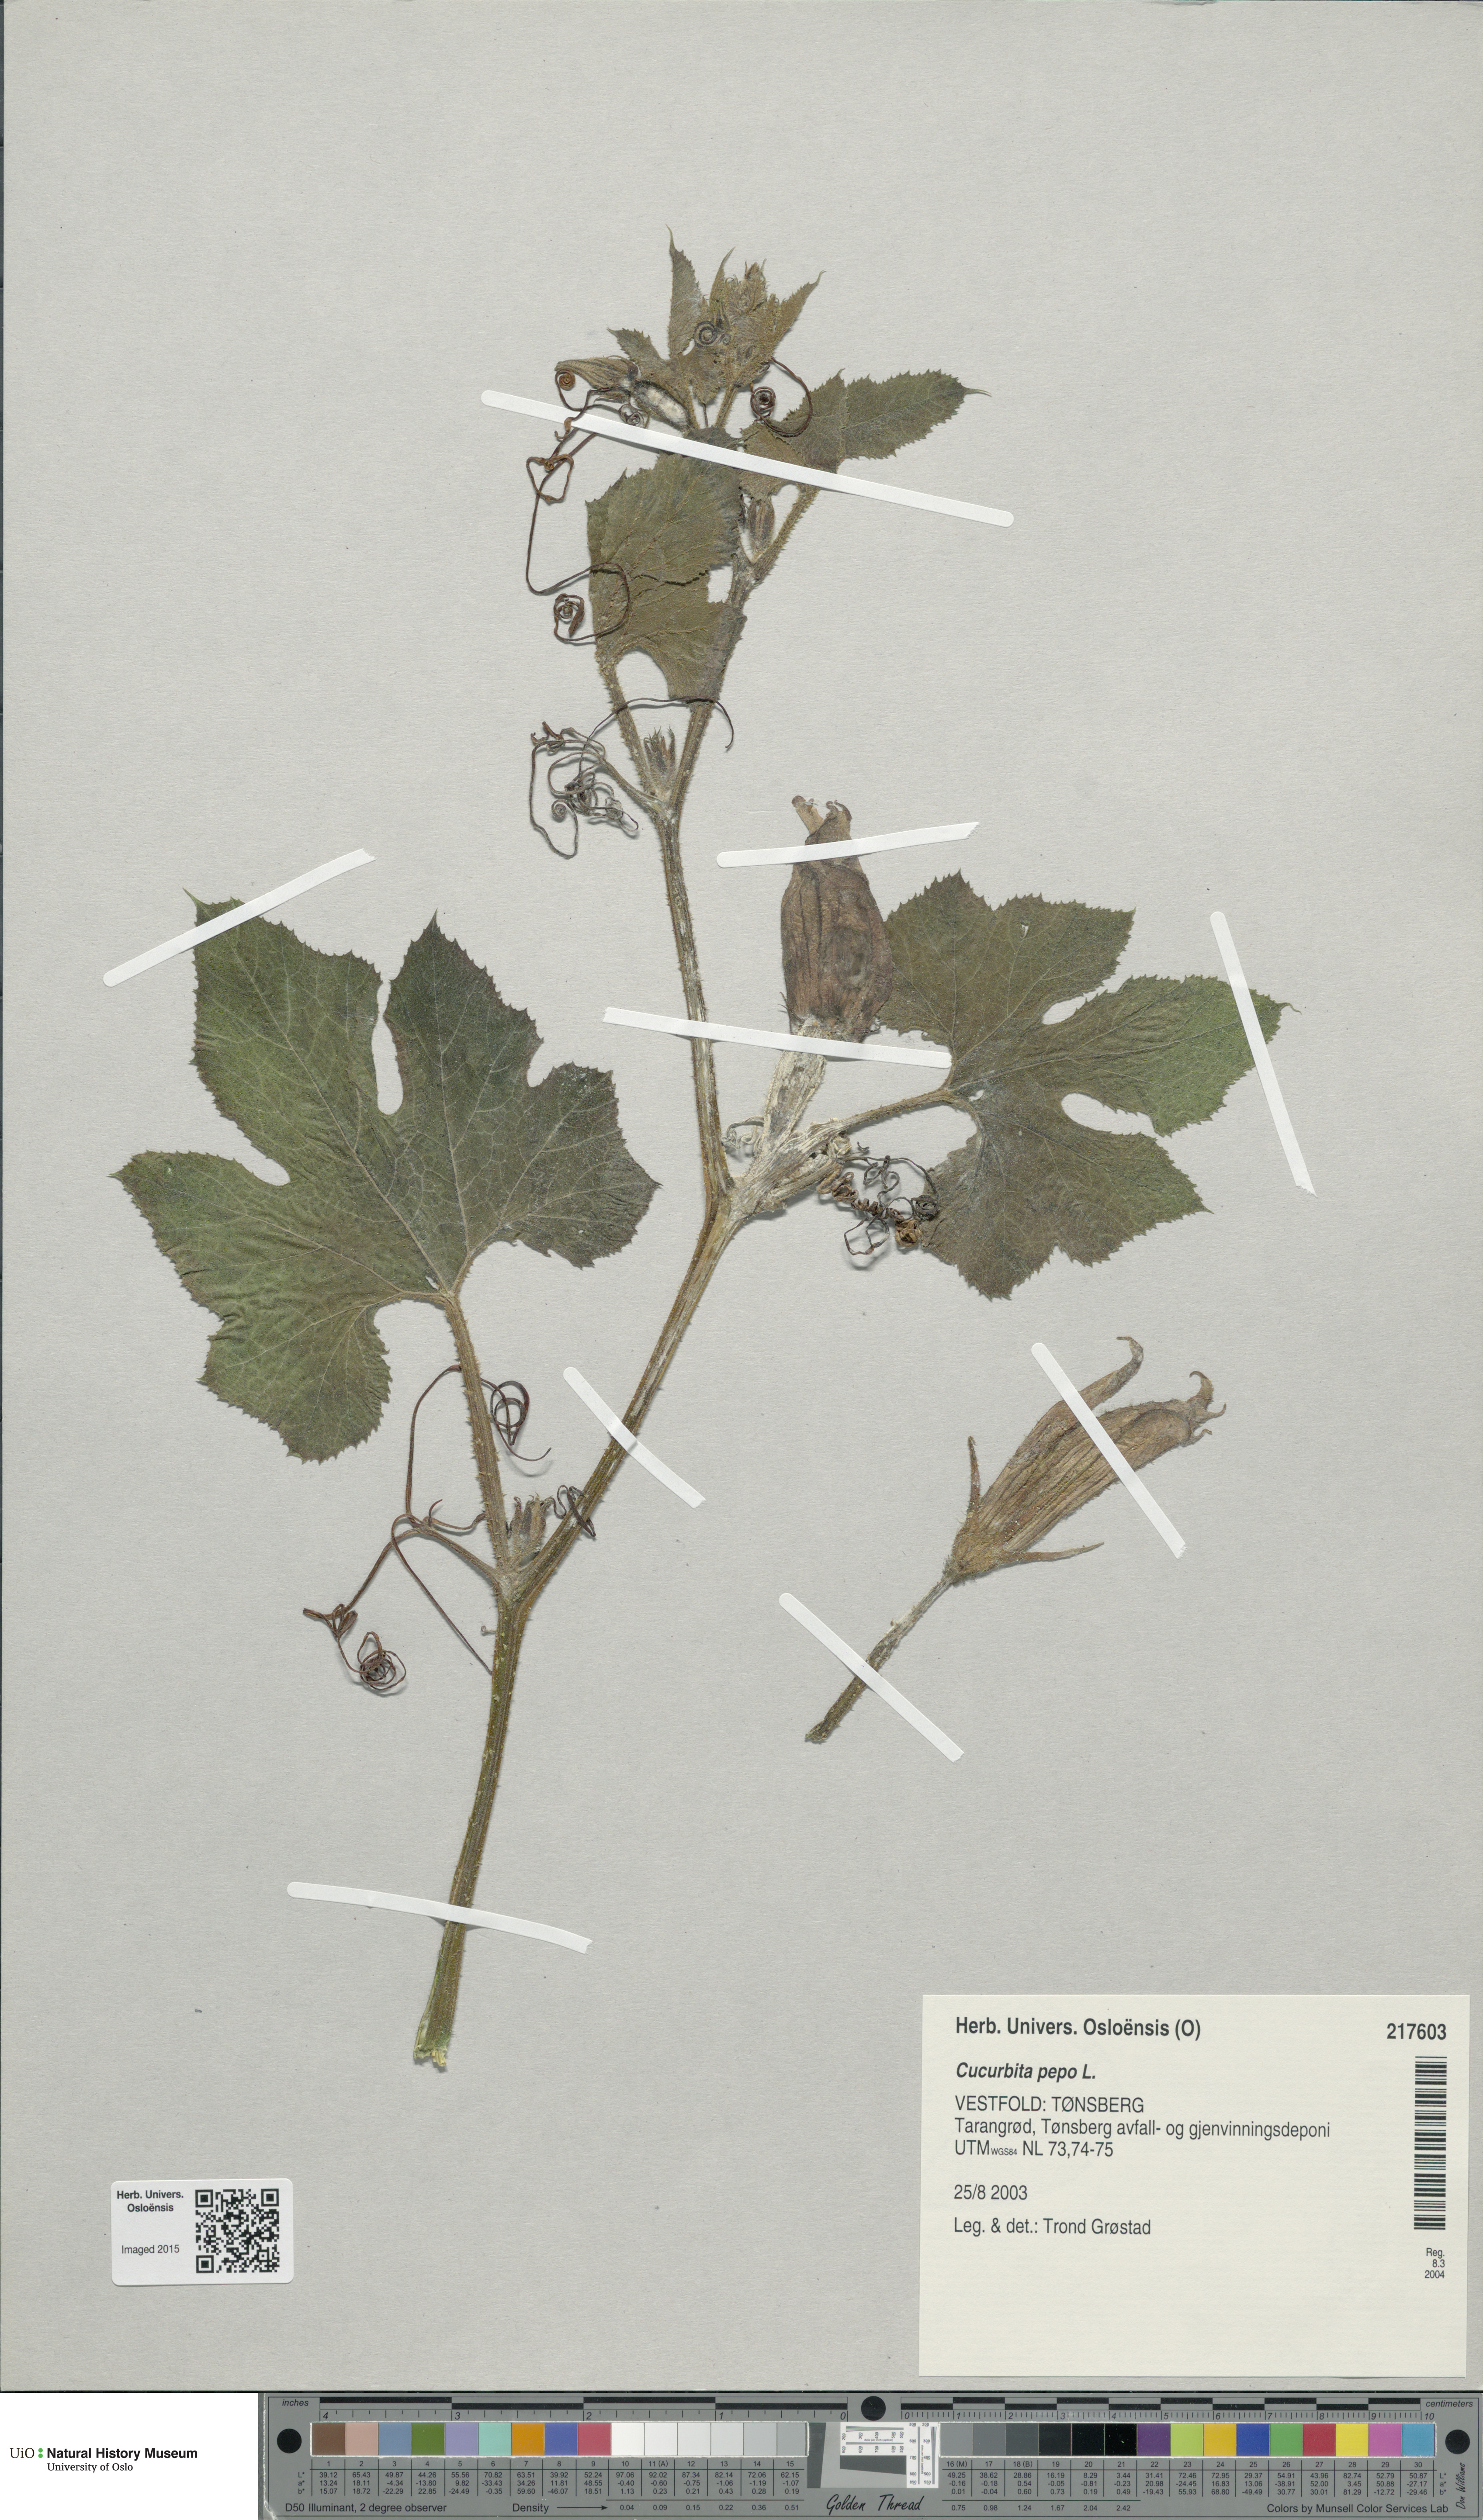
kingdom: Plantae
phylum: Tracheophyta
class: Magnoliopsida
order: Cucurbitales
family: Cucurbitaceae
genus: Cucurbita
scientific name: Cucurbita pepo
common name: Marrow
